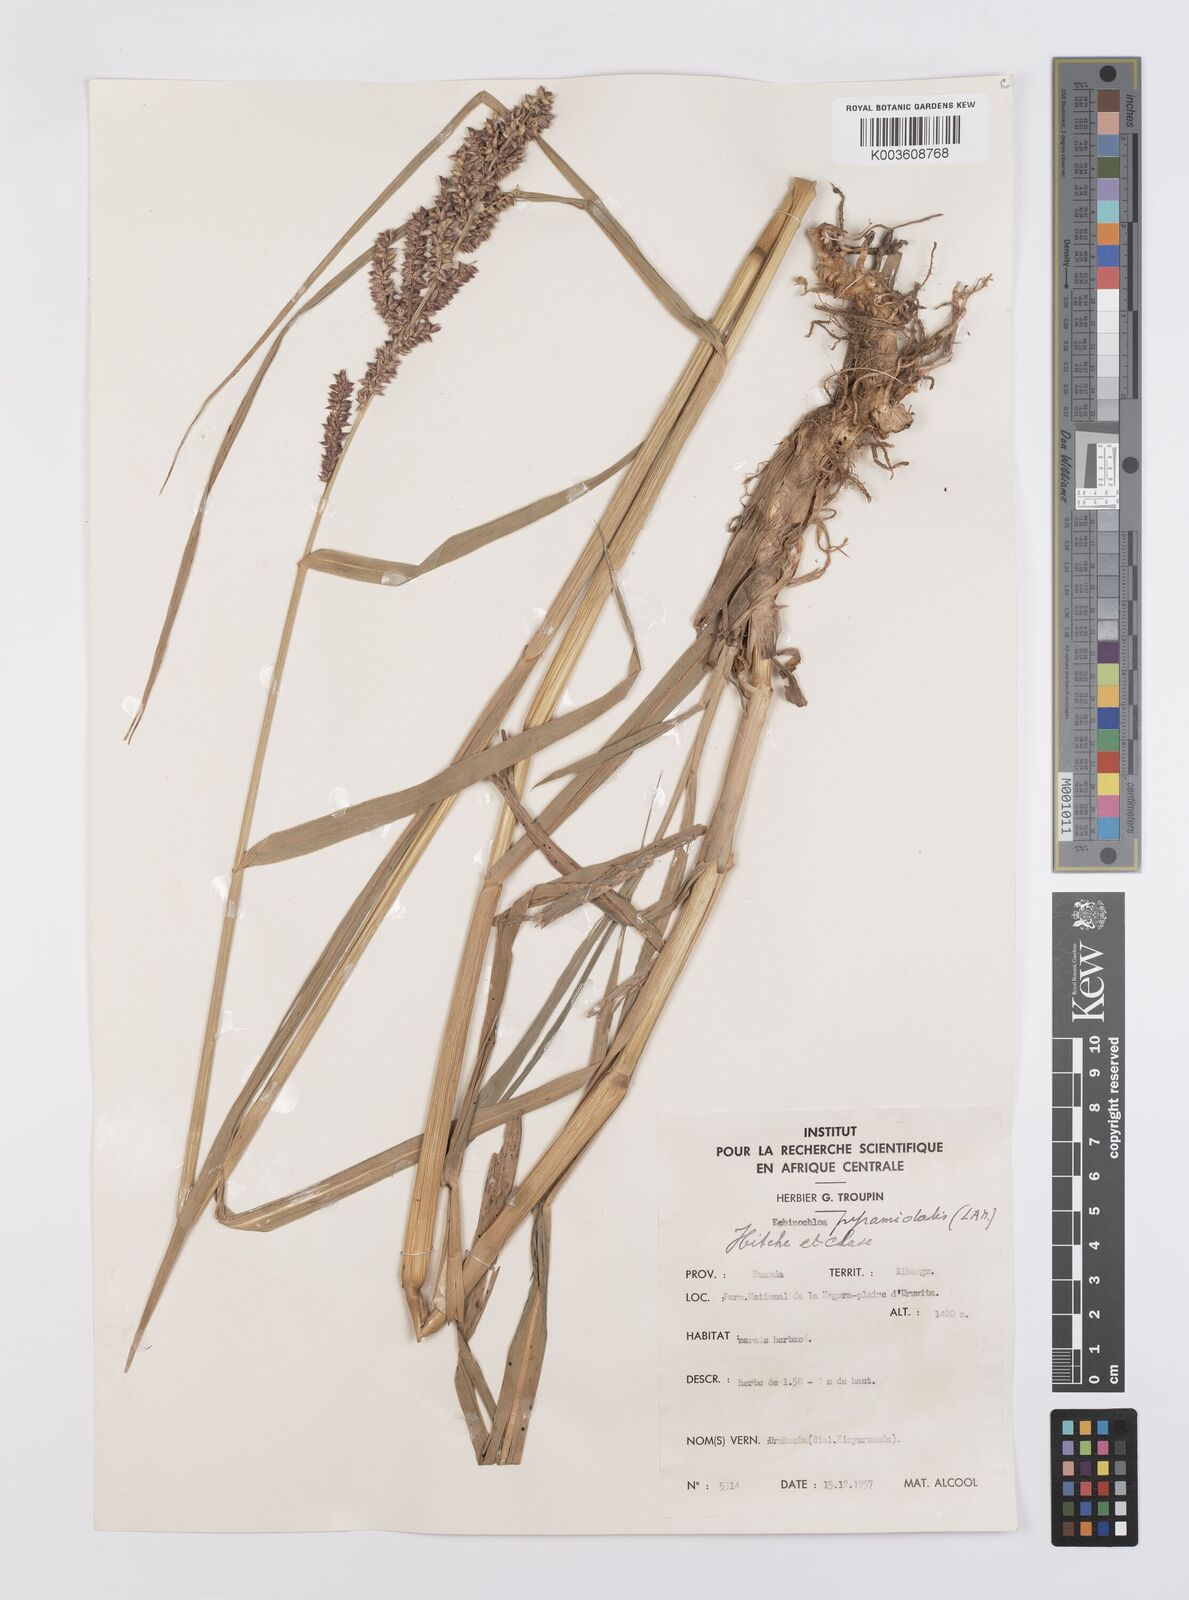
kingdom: Plantae
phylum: Tracheophyta
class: Liliopsida
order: Poales
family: Poaceae
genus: Echinochloa
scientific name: Echinochloa pyramidalis
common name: Antelope grass
